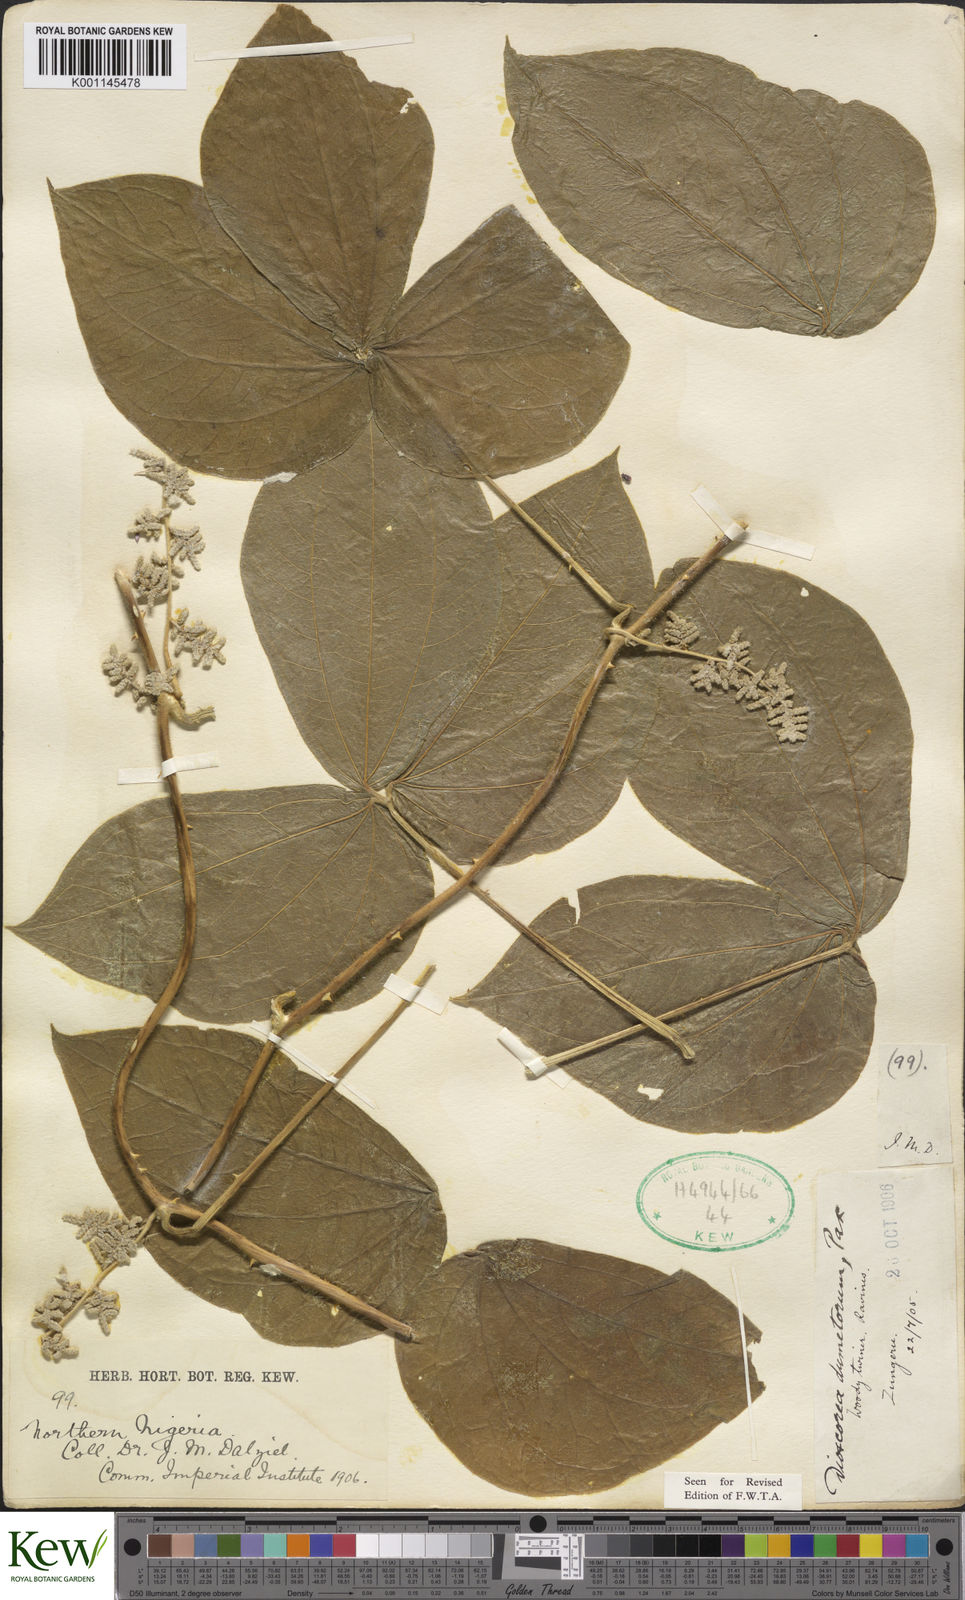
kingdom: Plantae
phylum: Tracheophyta
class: Liliopsida
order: Dioscoreales
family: Dioscoreaceae
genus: Dioscorea
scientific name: Dioscorea dumetorum
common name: African bitter yam
